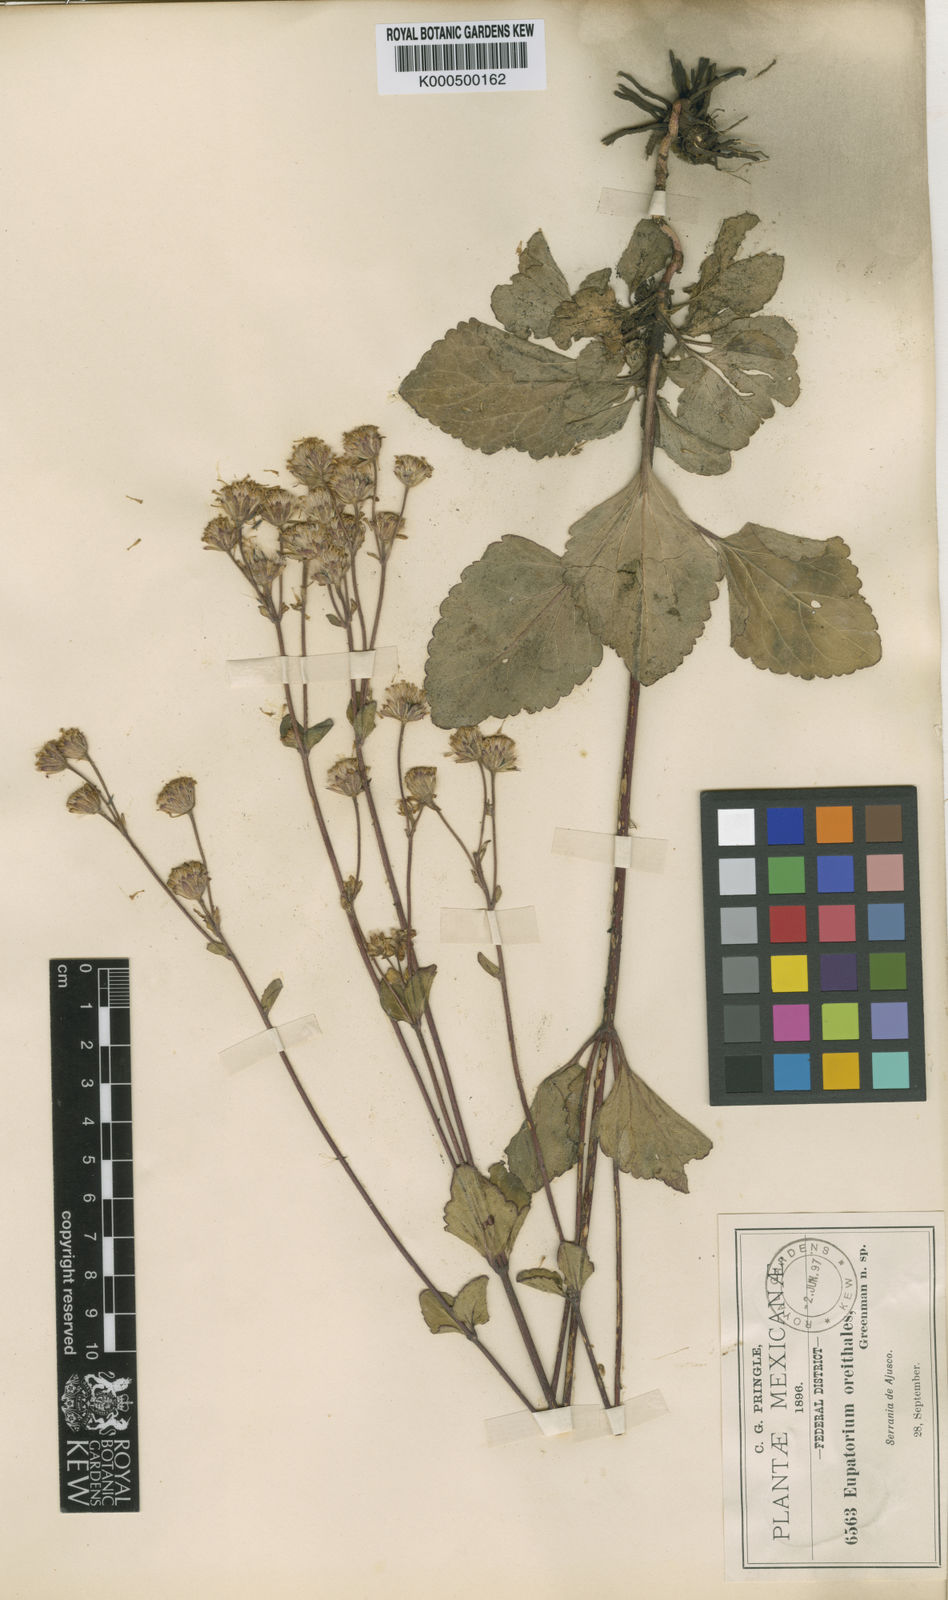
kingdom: Plantae
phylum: Tracheophyta
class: Magnoliopsida
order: Asterales
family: Asteraceae
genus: Ageratina
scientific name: Ageratina prunellifolia
